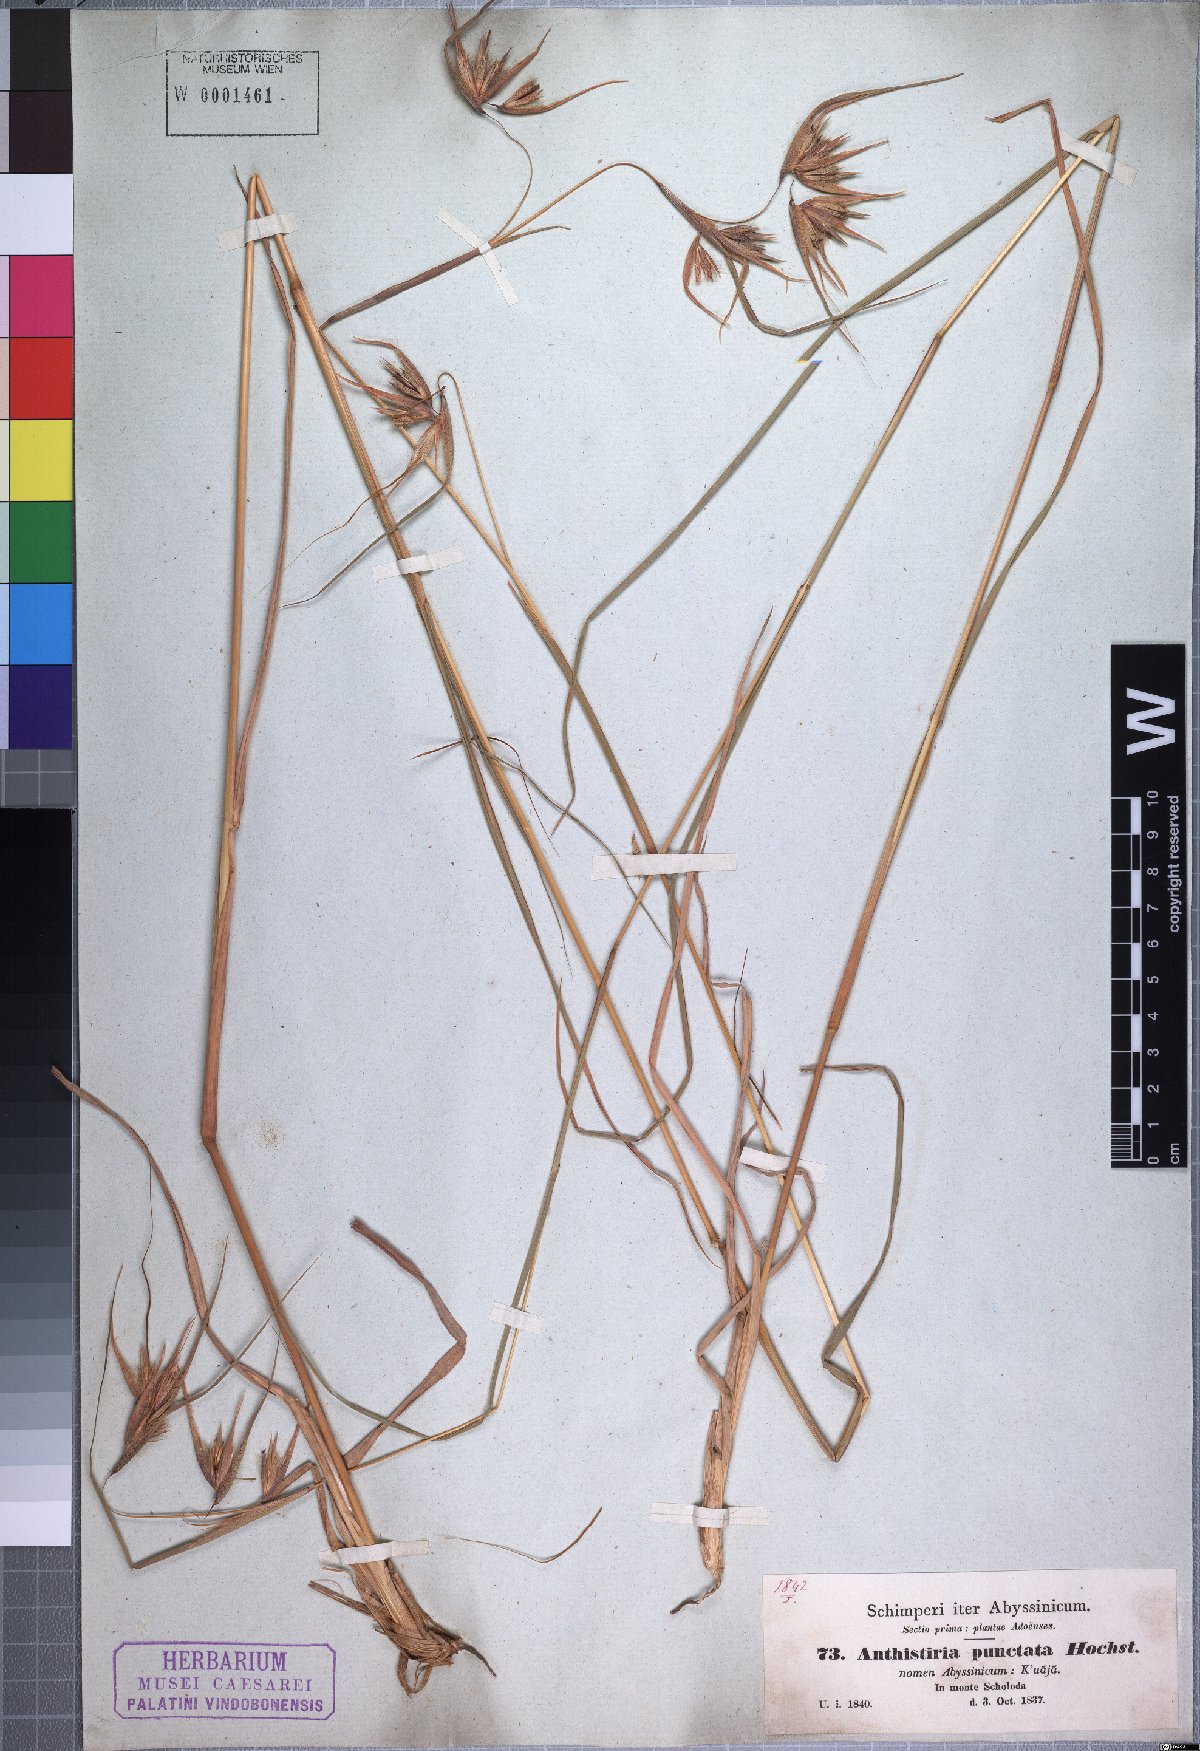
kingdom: Plantae
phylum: Tracheophyta
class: Liliopsida
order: Poales
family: Poaceae
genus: Themeda
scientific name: Themeda triandra
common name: Kangaroo grass
